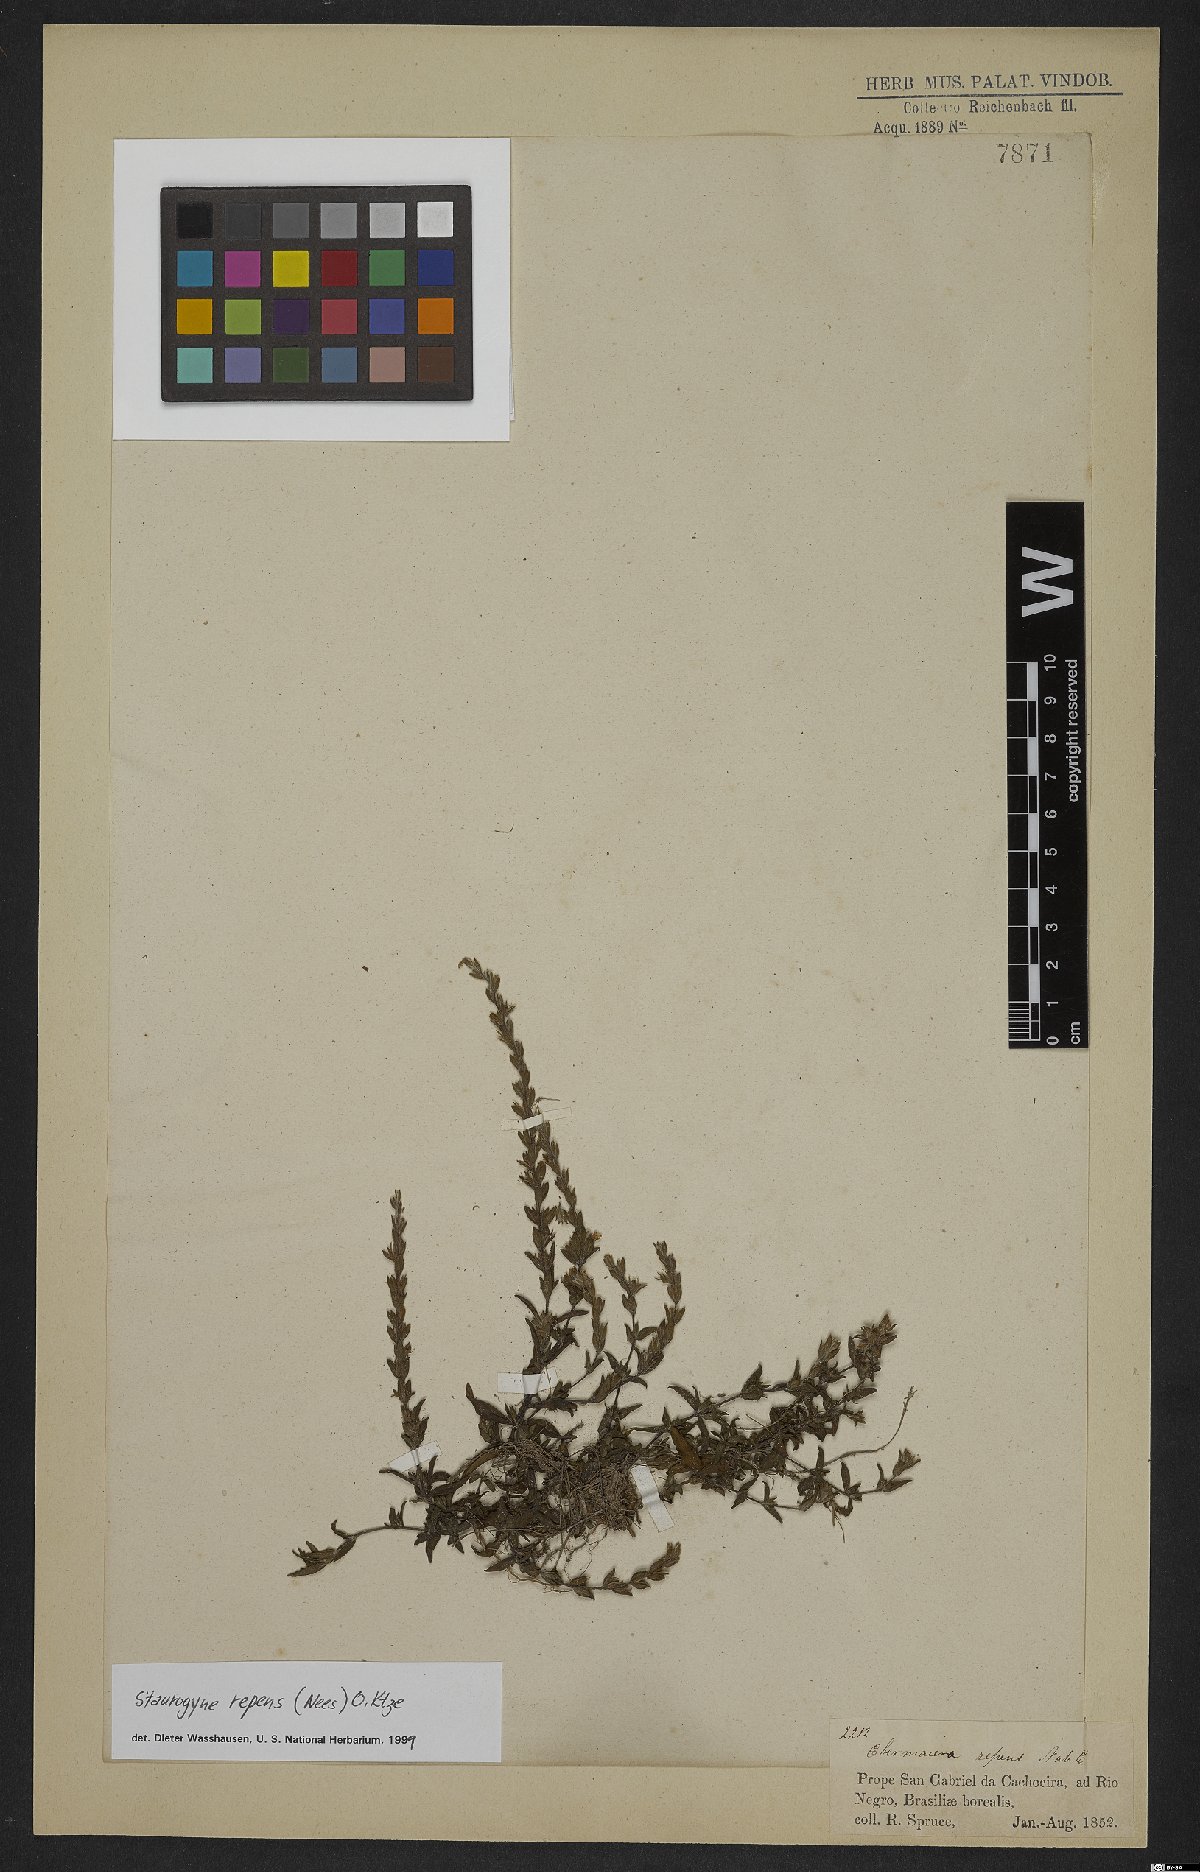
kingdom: Plantae
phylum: Tracheophyta
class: Magnoliopsida
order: Lamiales
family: Acanthaceae
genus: Staurogyne
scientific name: Staurogyne repens
